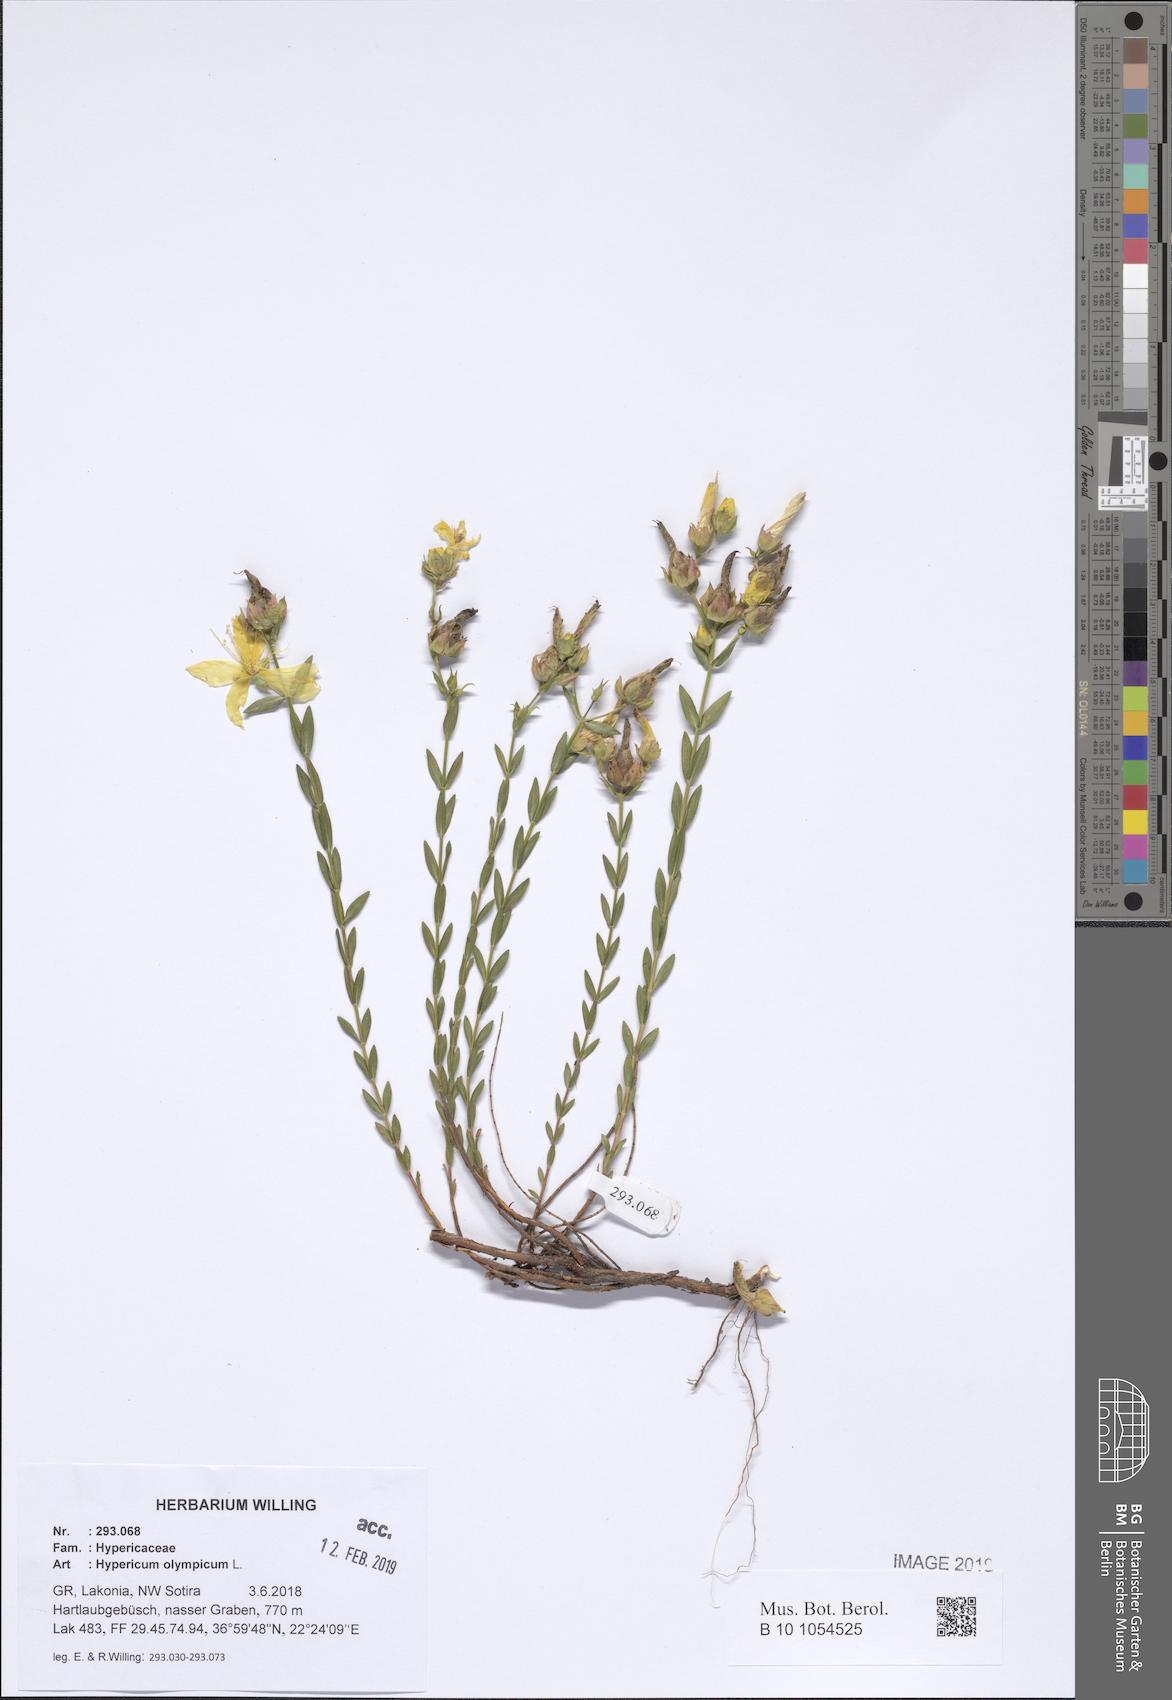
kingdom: Plantae
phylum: Tracheophyta
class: Magnoliopsida
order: Malpighiales
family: Hypericaceae
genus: Hypericum
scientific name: Hypericum olympicum
